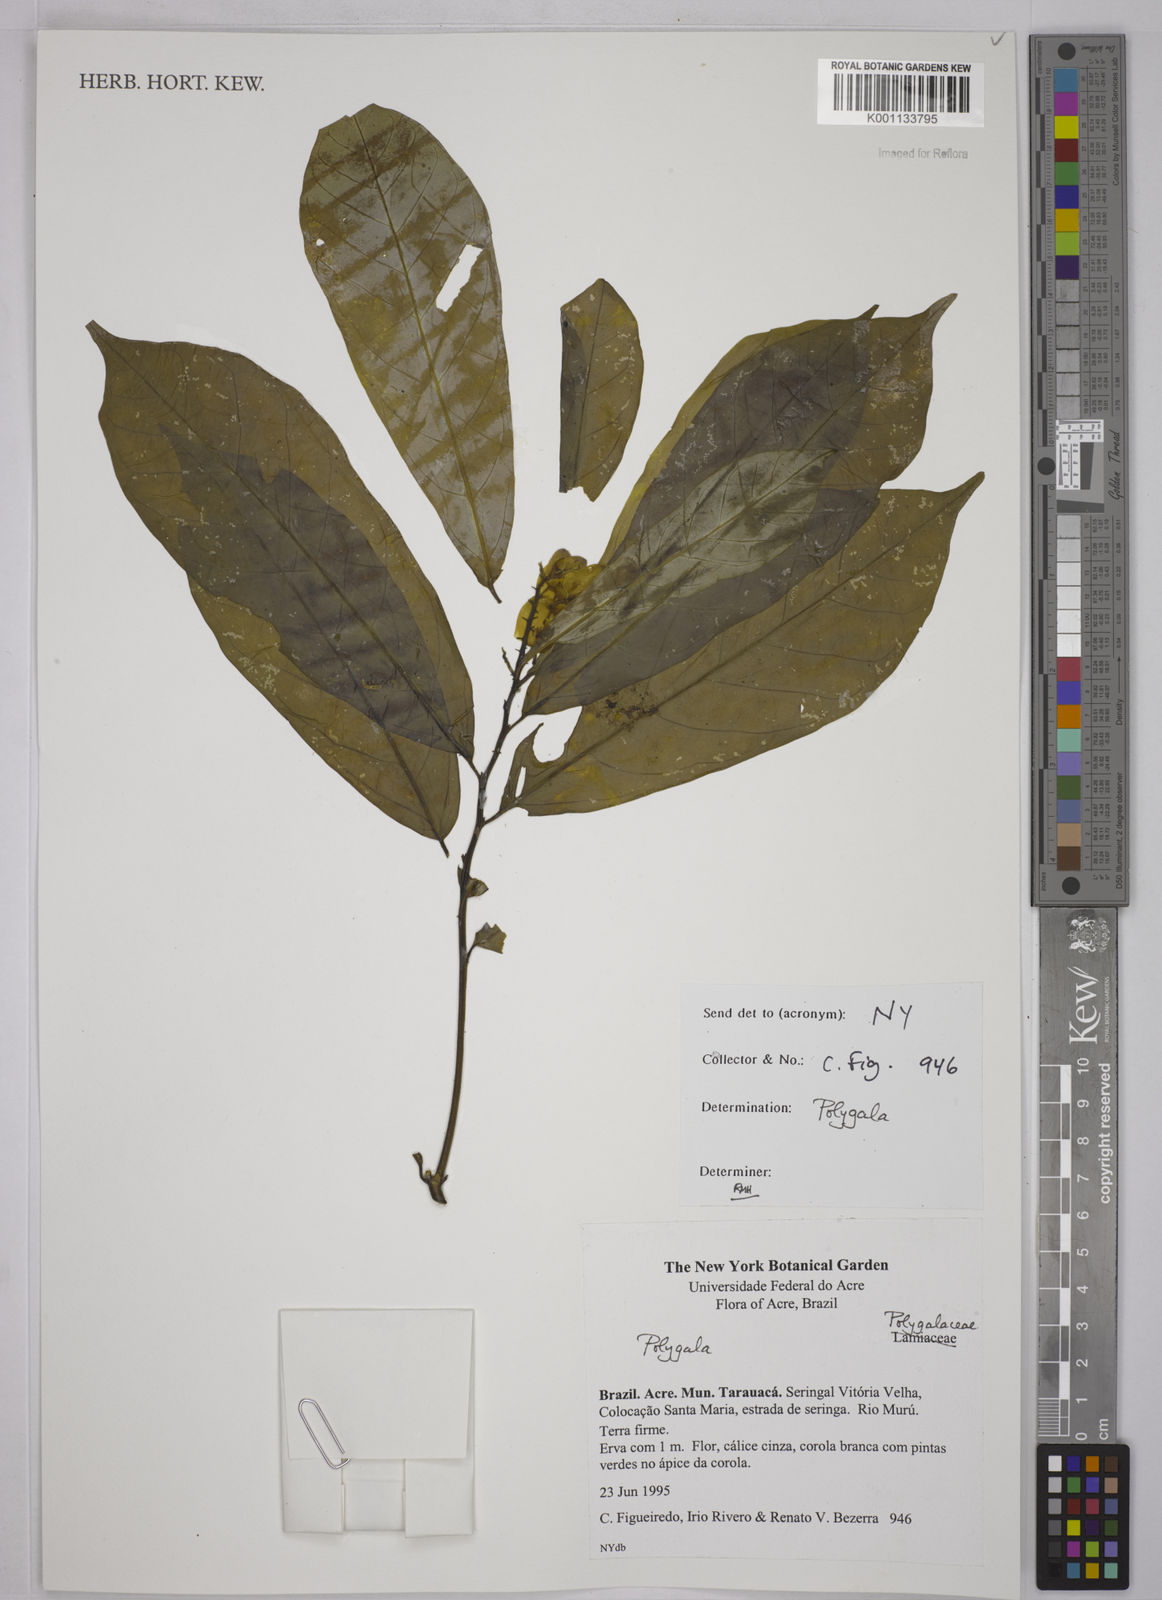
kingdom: Plantae
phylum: Tracheophyta
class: Magnoliopsida
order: Fabales
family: Polygalaceae
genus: Polygala
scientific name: Polygala
